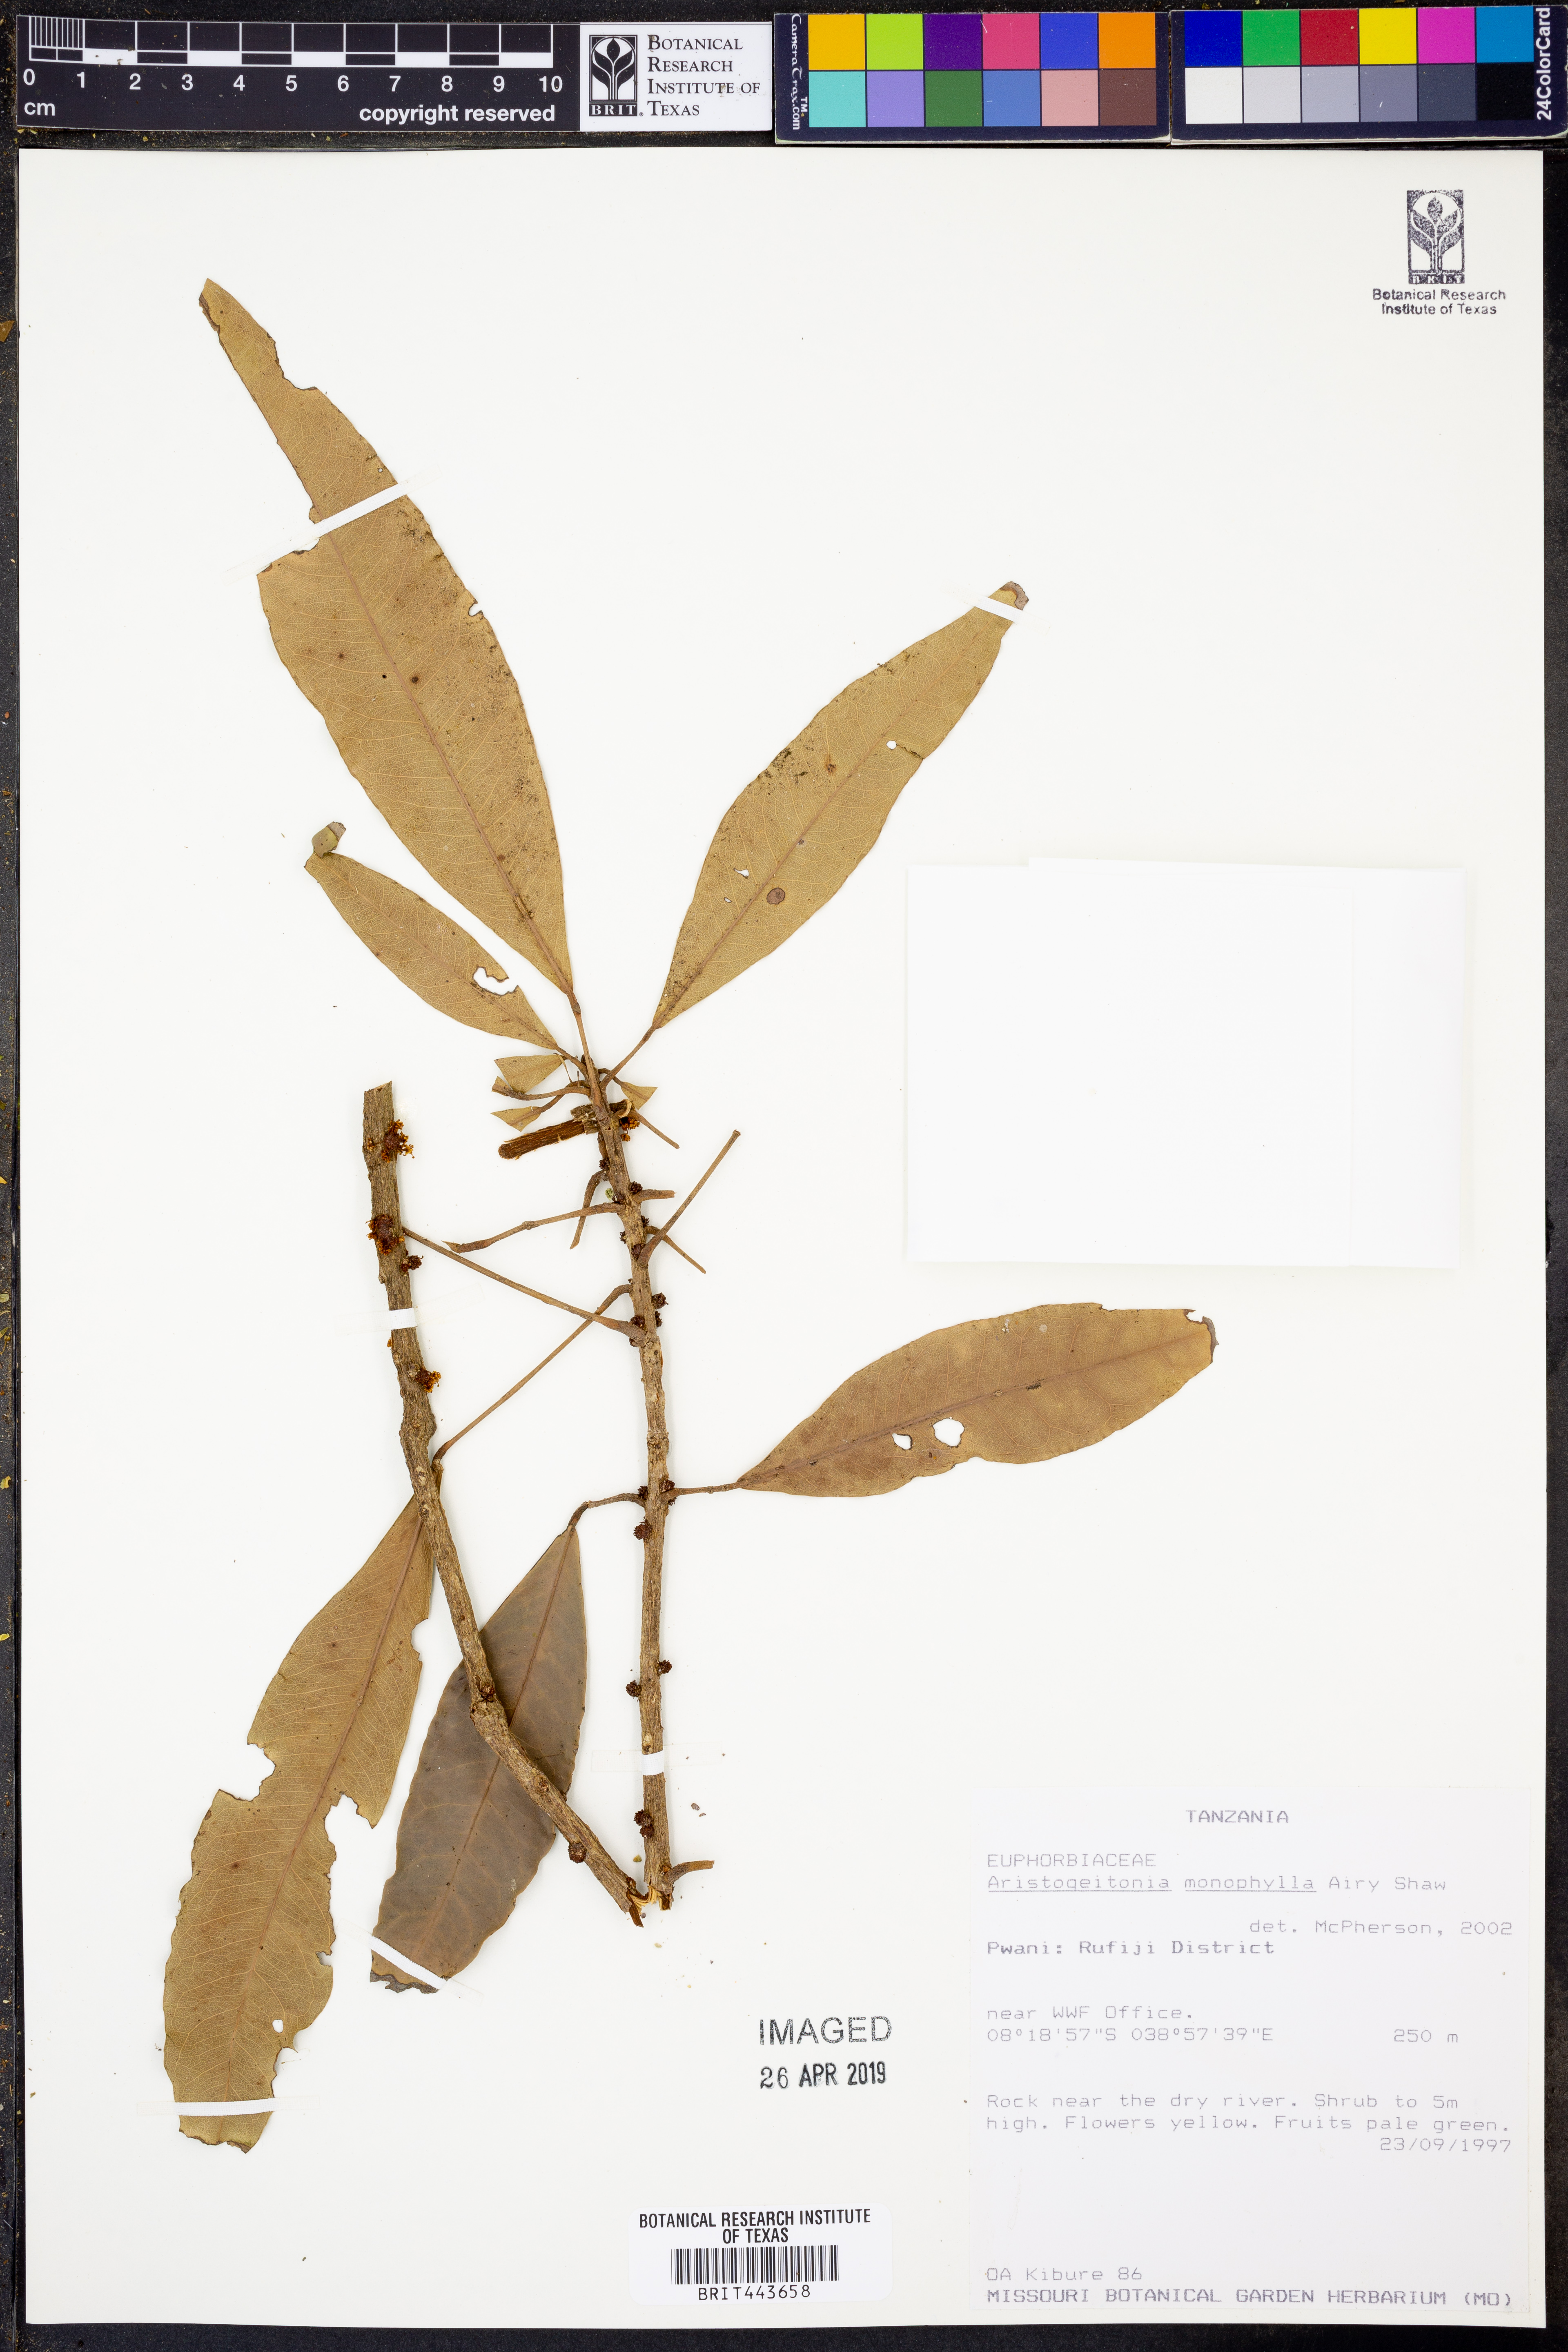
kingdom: Plantae
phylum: Tracheophyta
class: Magnoliopsida
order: Malpighiales
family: Picrodendraceae
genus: Aristogeitonia
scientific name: Aristogeitonia monophylla
